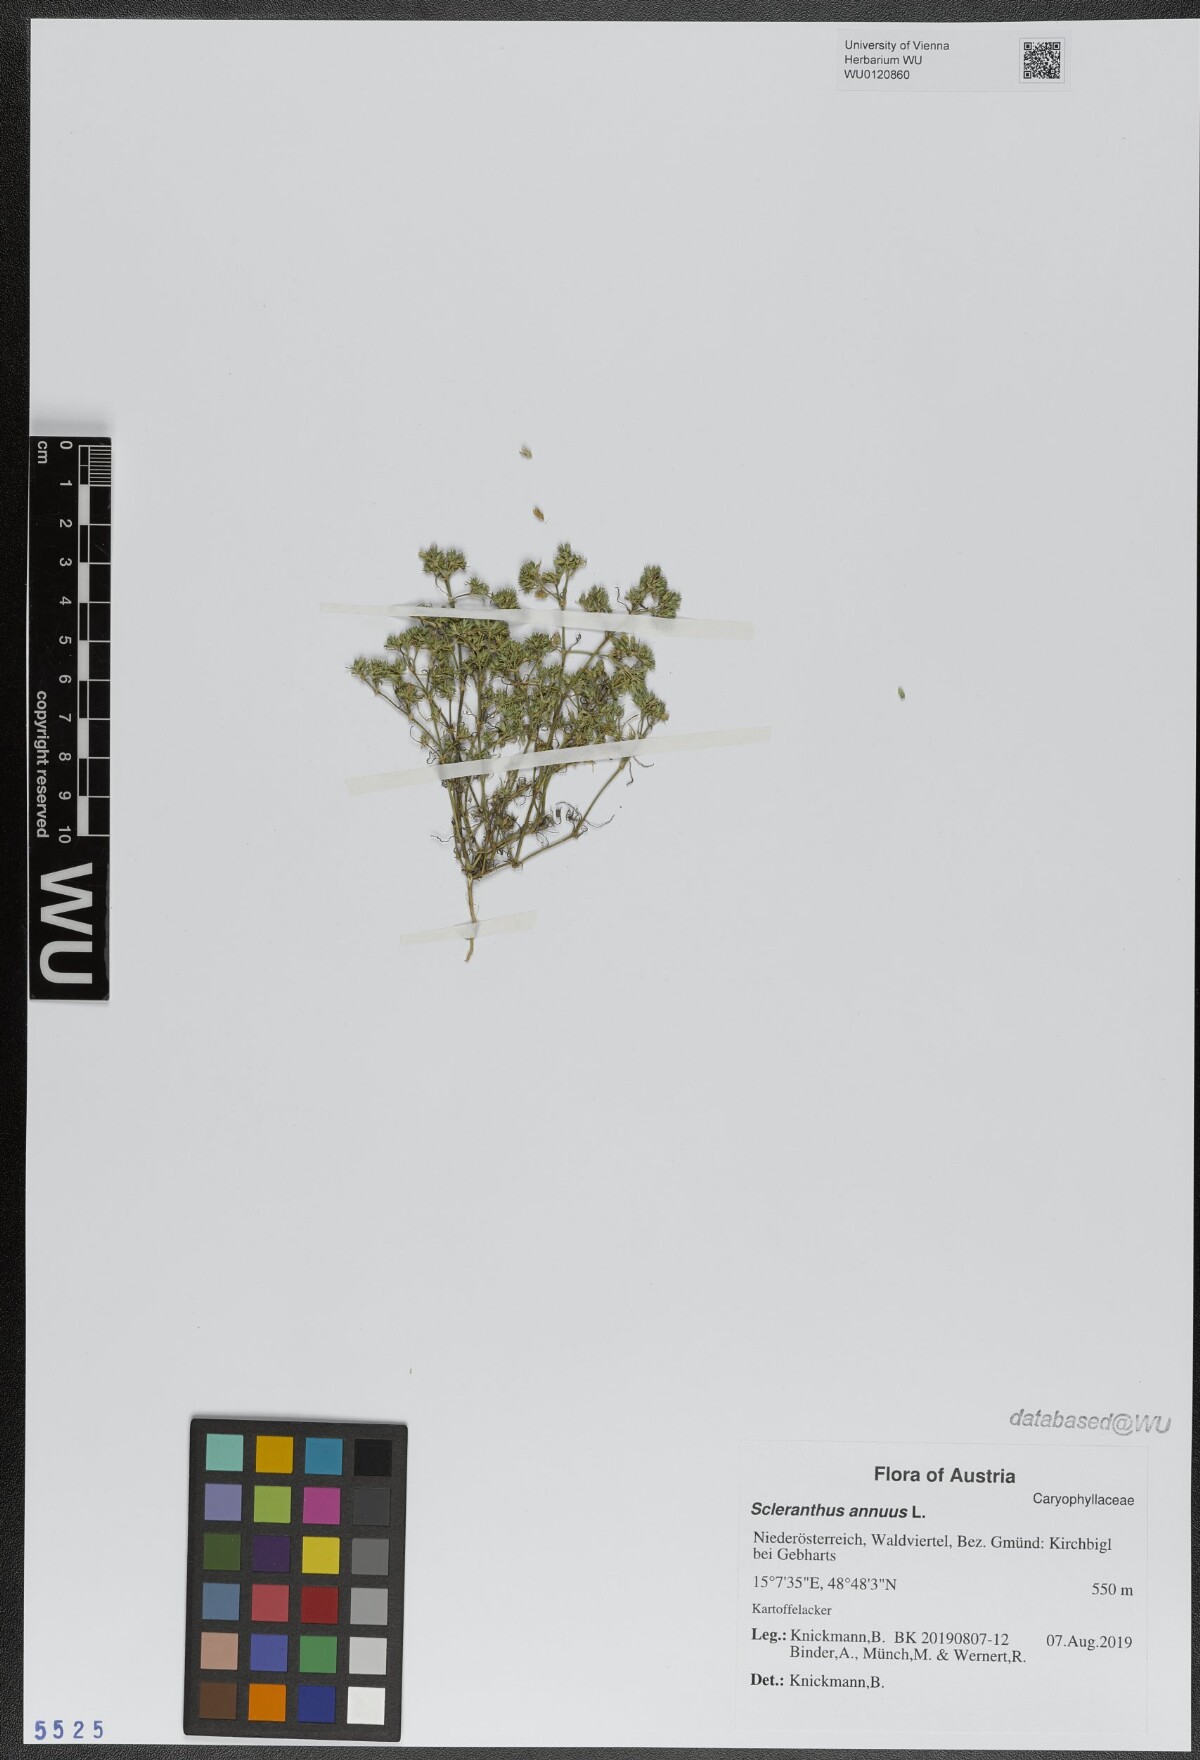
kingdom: Plantae
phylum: Tracheophyta
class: Magnoliopsida
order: Caryophyllales
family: Caryophyllaceae
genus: Scleranthus
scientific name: Scleranthus annuus
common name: Annual knawel
